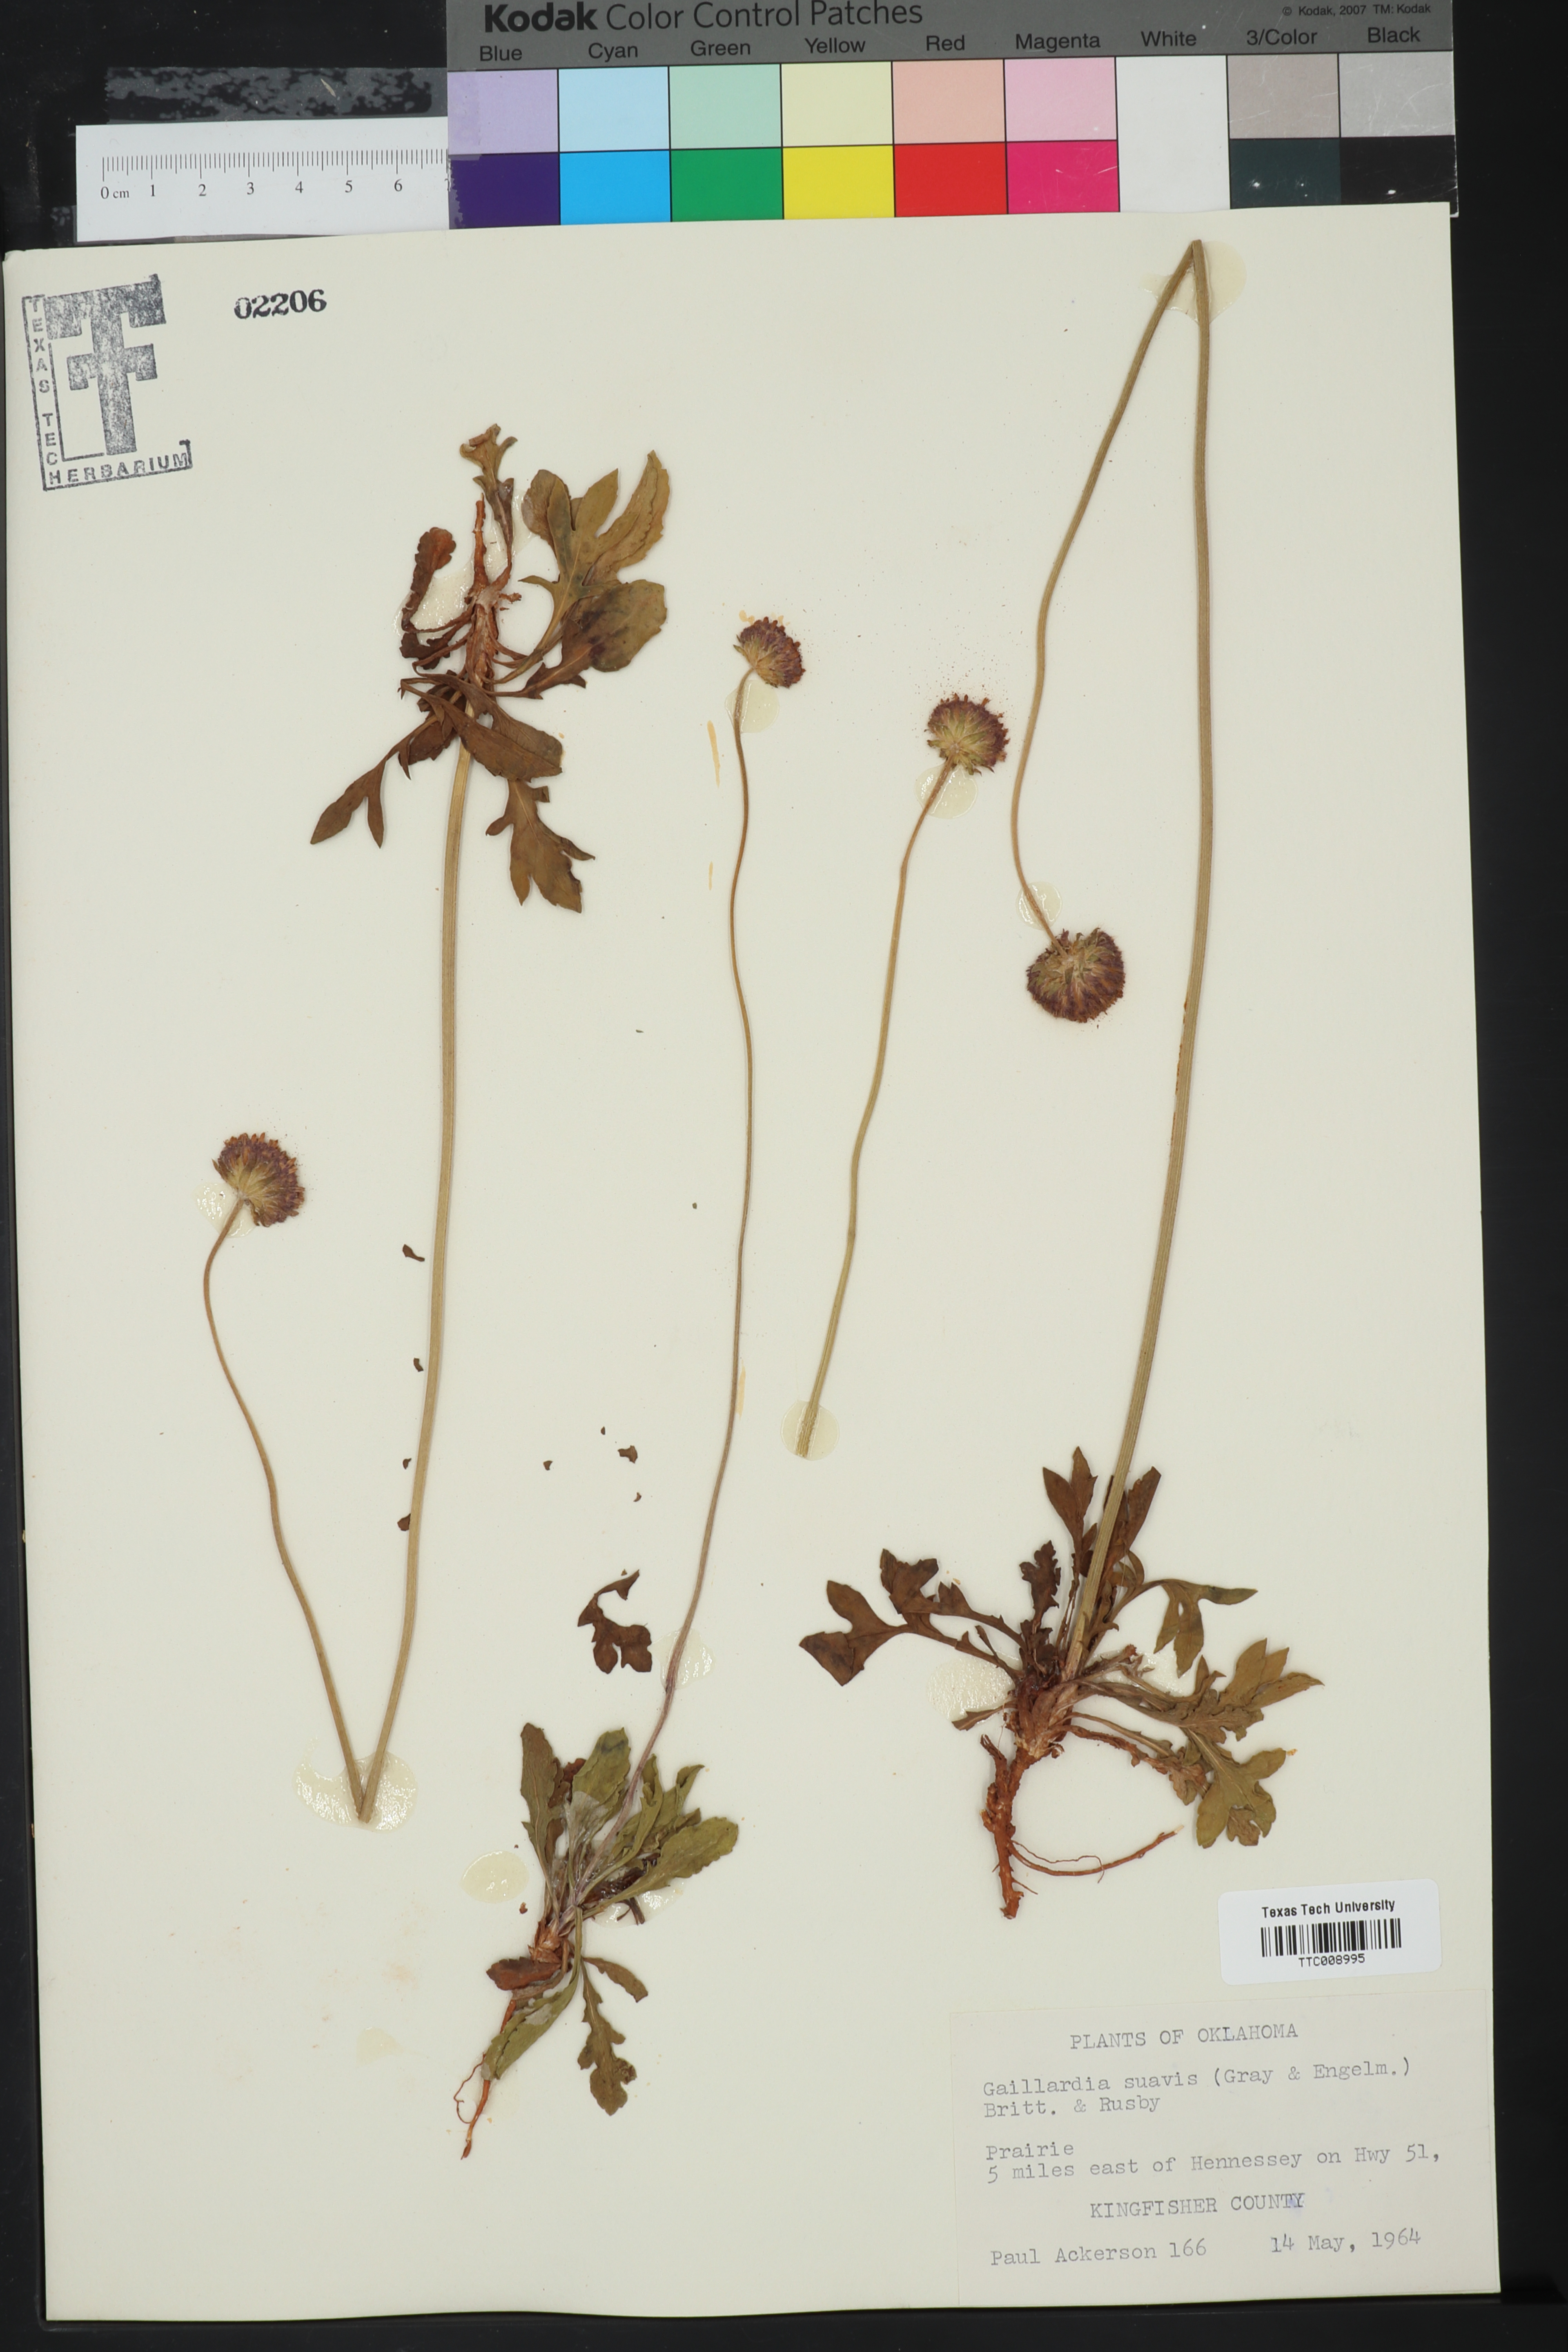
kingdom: Plantae
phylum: Tracheophyta
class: Magnoliopsida
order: Asterales
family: Asteraceae
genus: Gaillardia
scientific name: Gaillardia suavis
